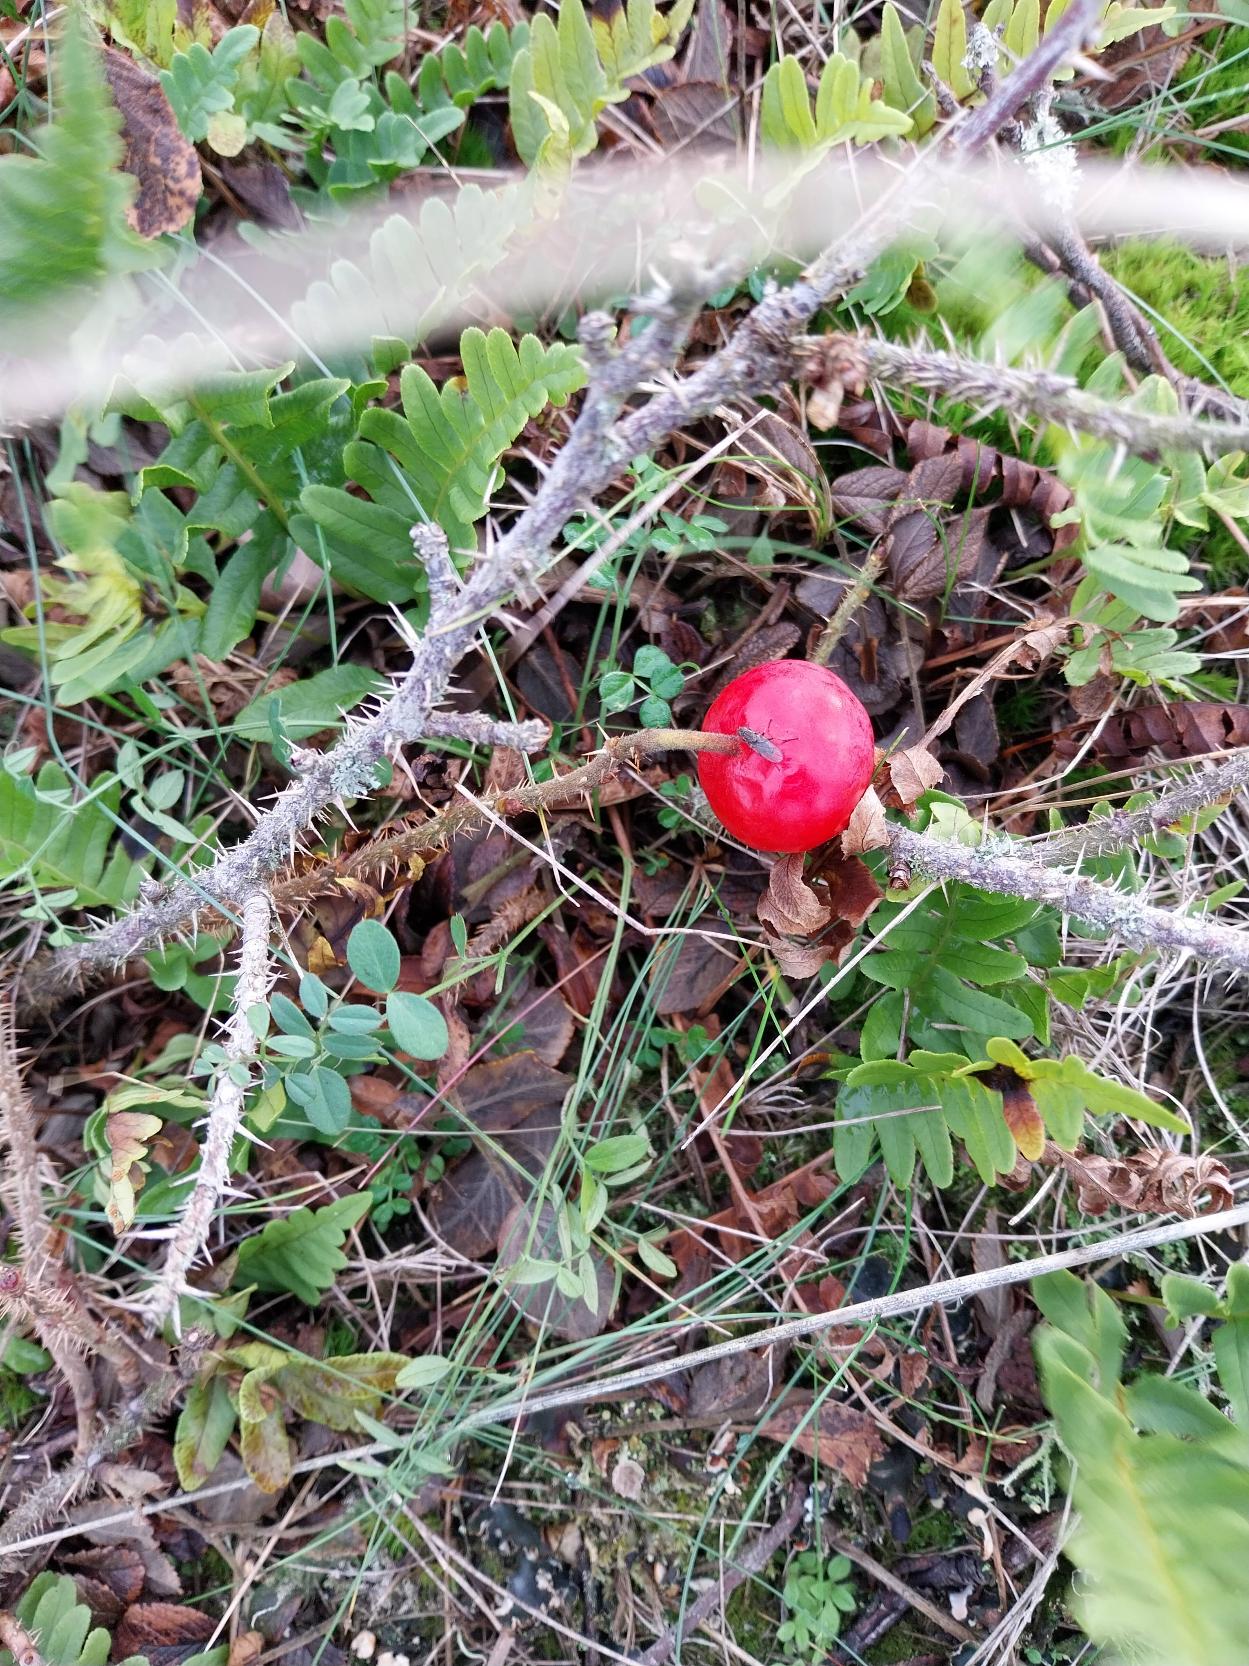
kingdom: Plantae
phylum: Tracheophyta
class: Magnoliopsida
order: Rosales
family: Rosaceae
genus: Rosa
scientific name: Rosa rugosa
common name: Rynket rose
